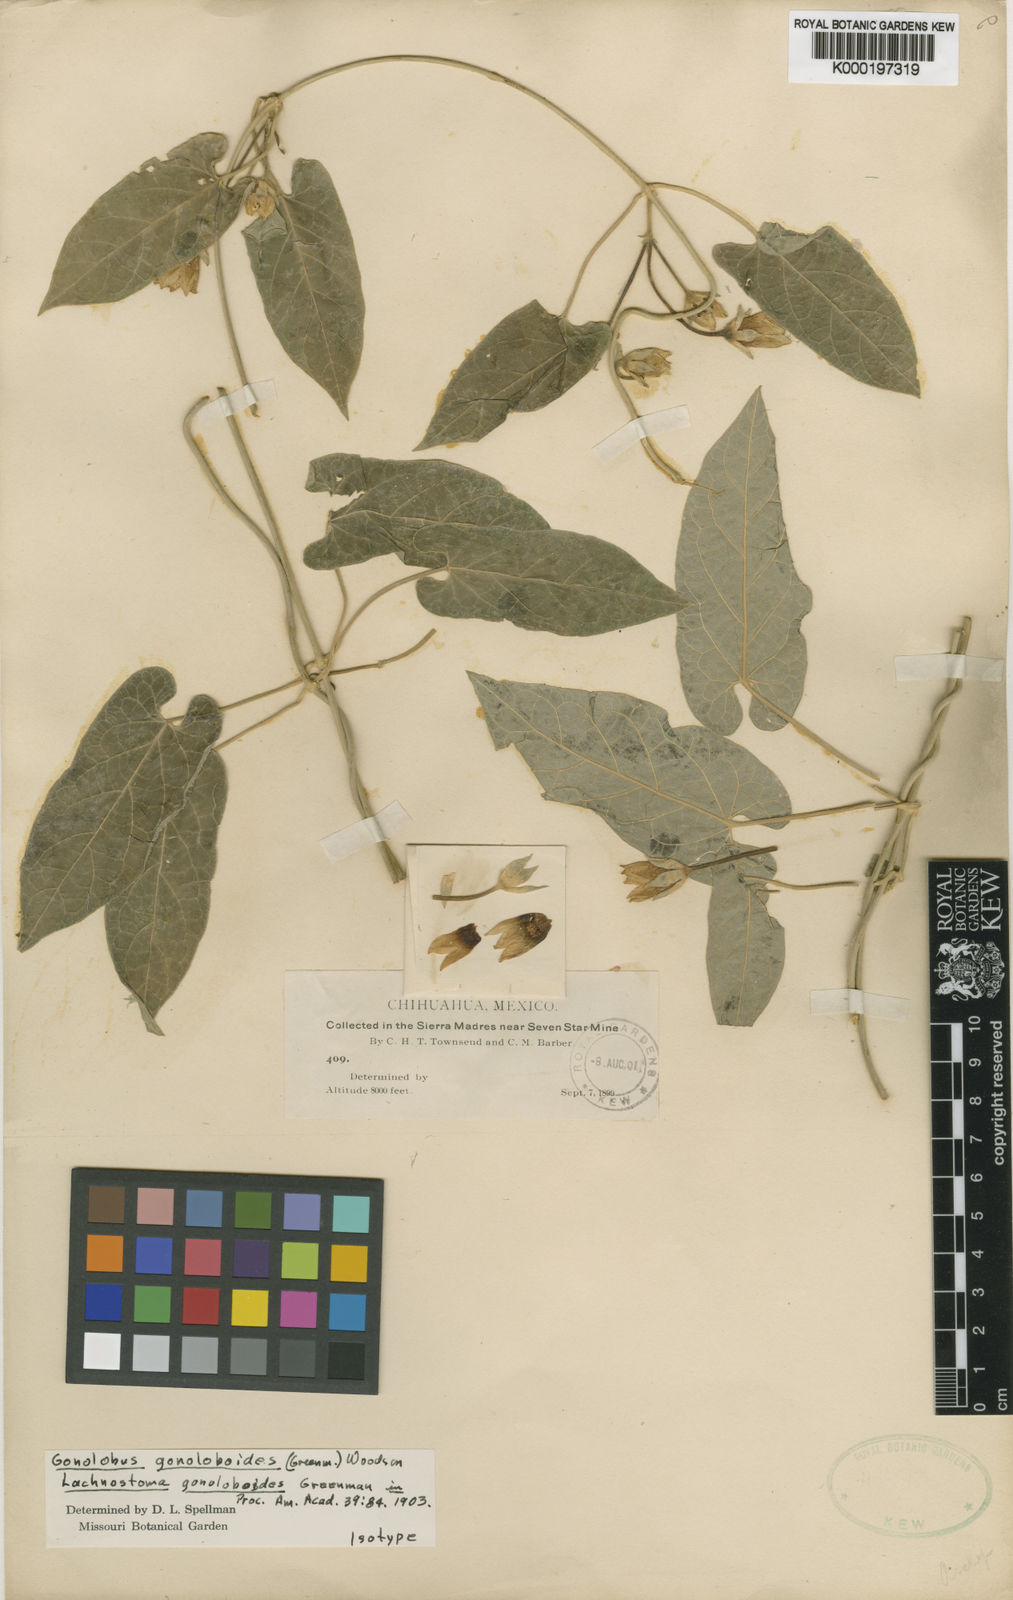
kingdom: Plantae
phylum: Tracheophyta
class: Magnoliopsida
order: Gentianales
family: Apocynaceae
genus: Gonolobus
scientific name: Gonolobus gonoloboides
